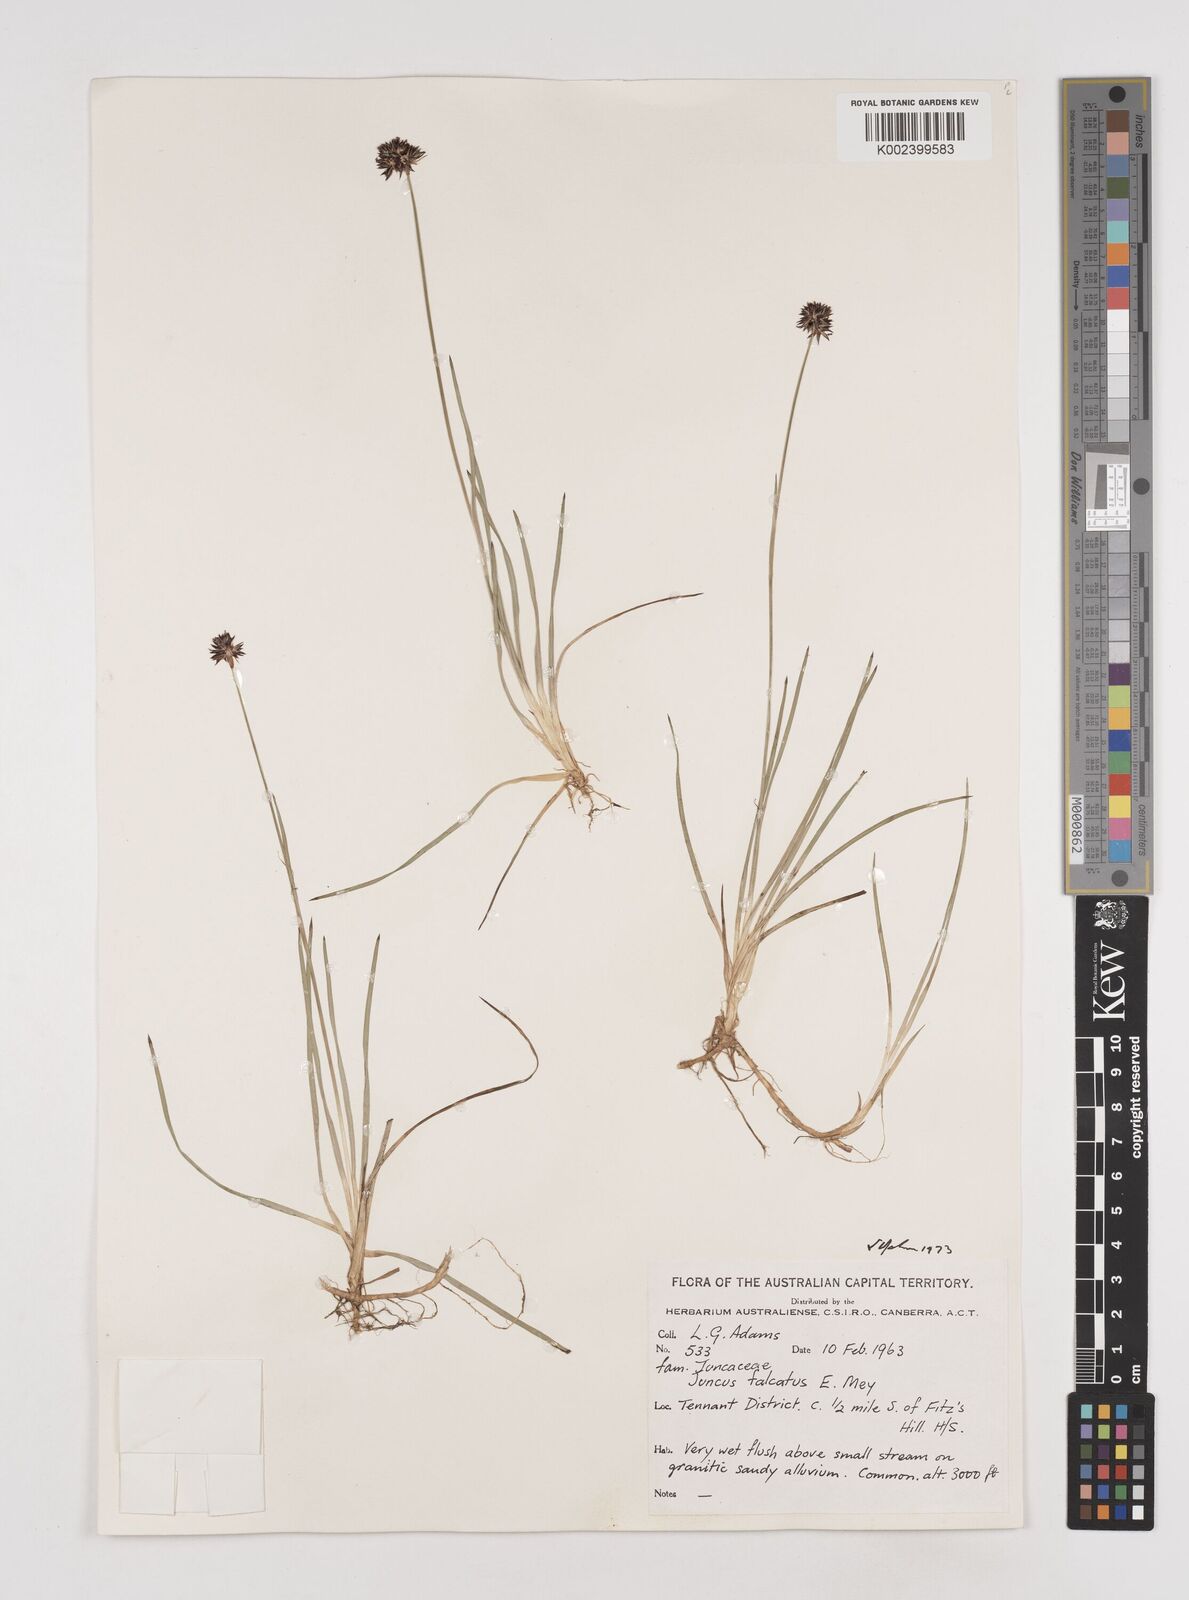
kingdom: Plantae
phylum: Tracheophyta
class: Liliopsida
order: Poales
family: Juncaceae
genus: Juncus
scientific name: Juncus falcatus
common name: Sickle-leaf rush
